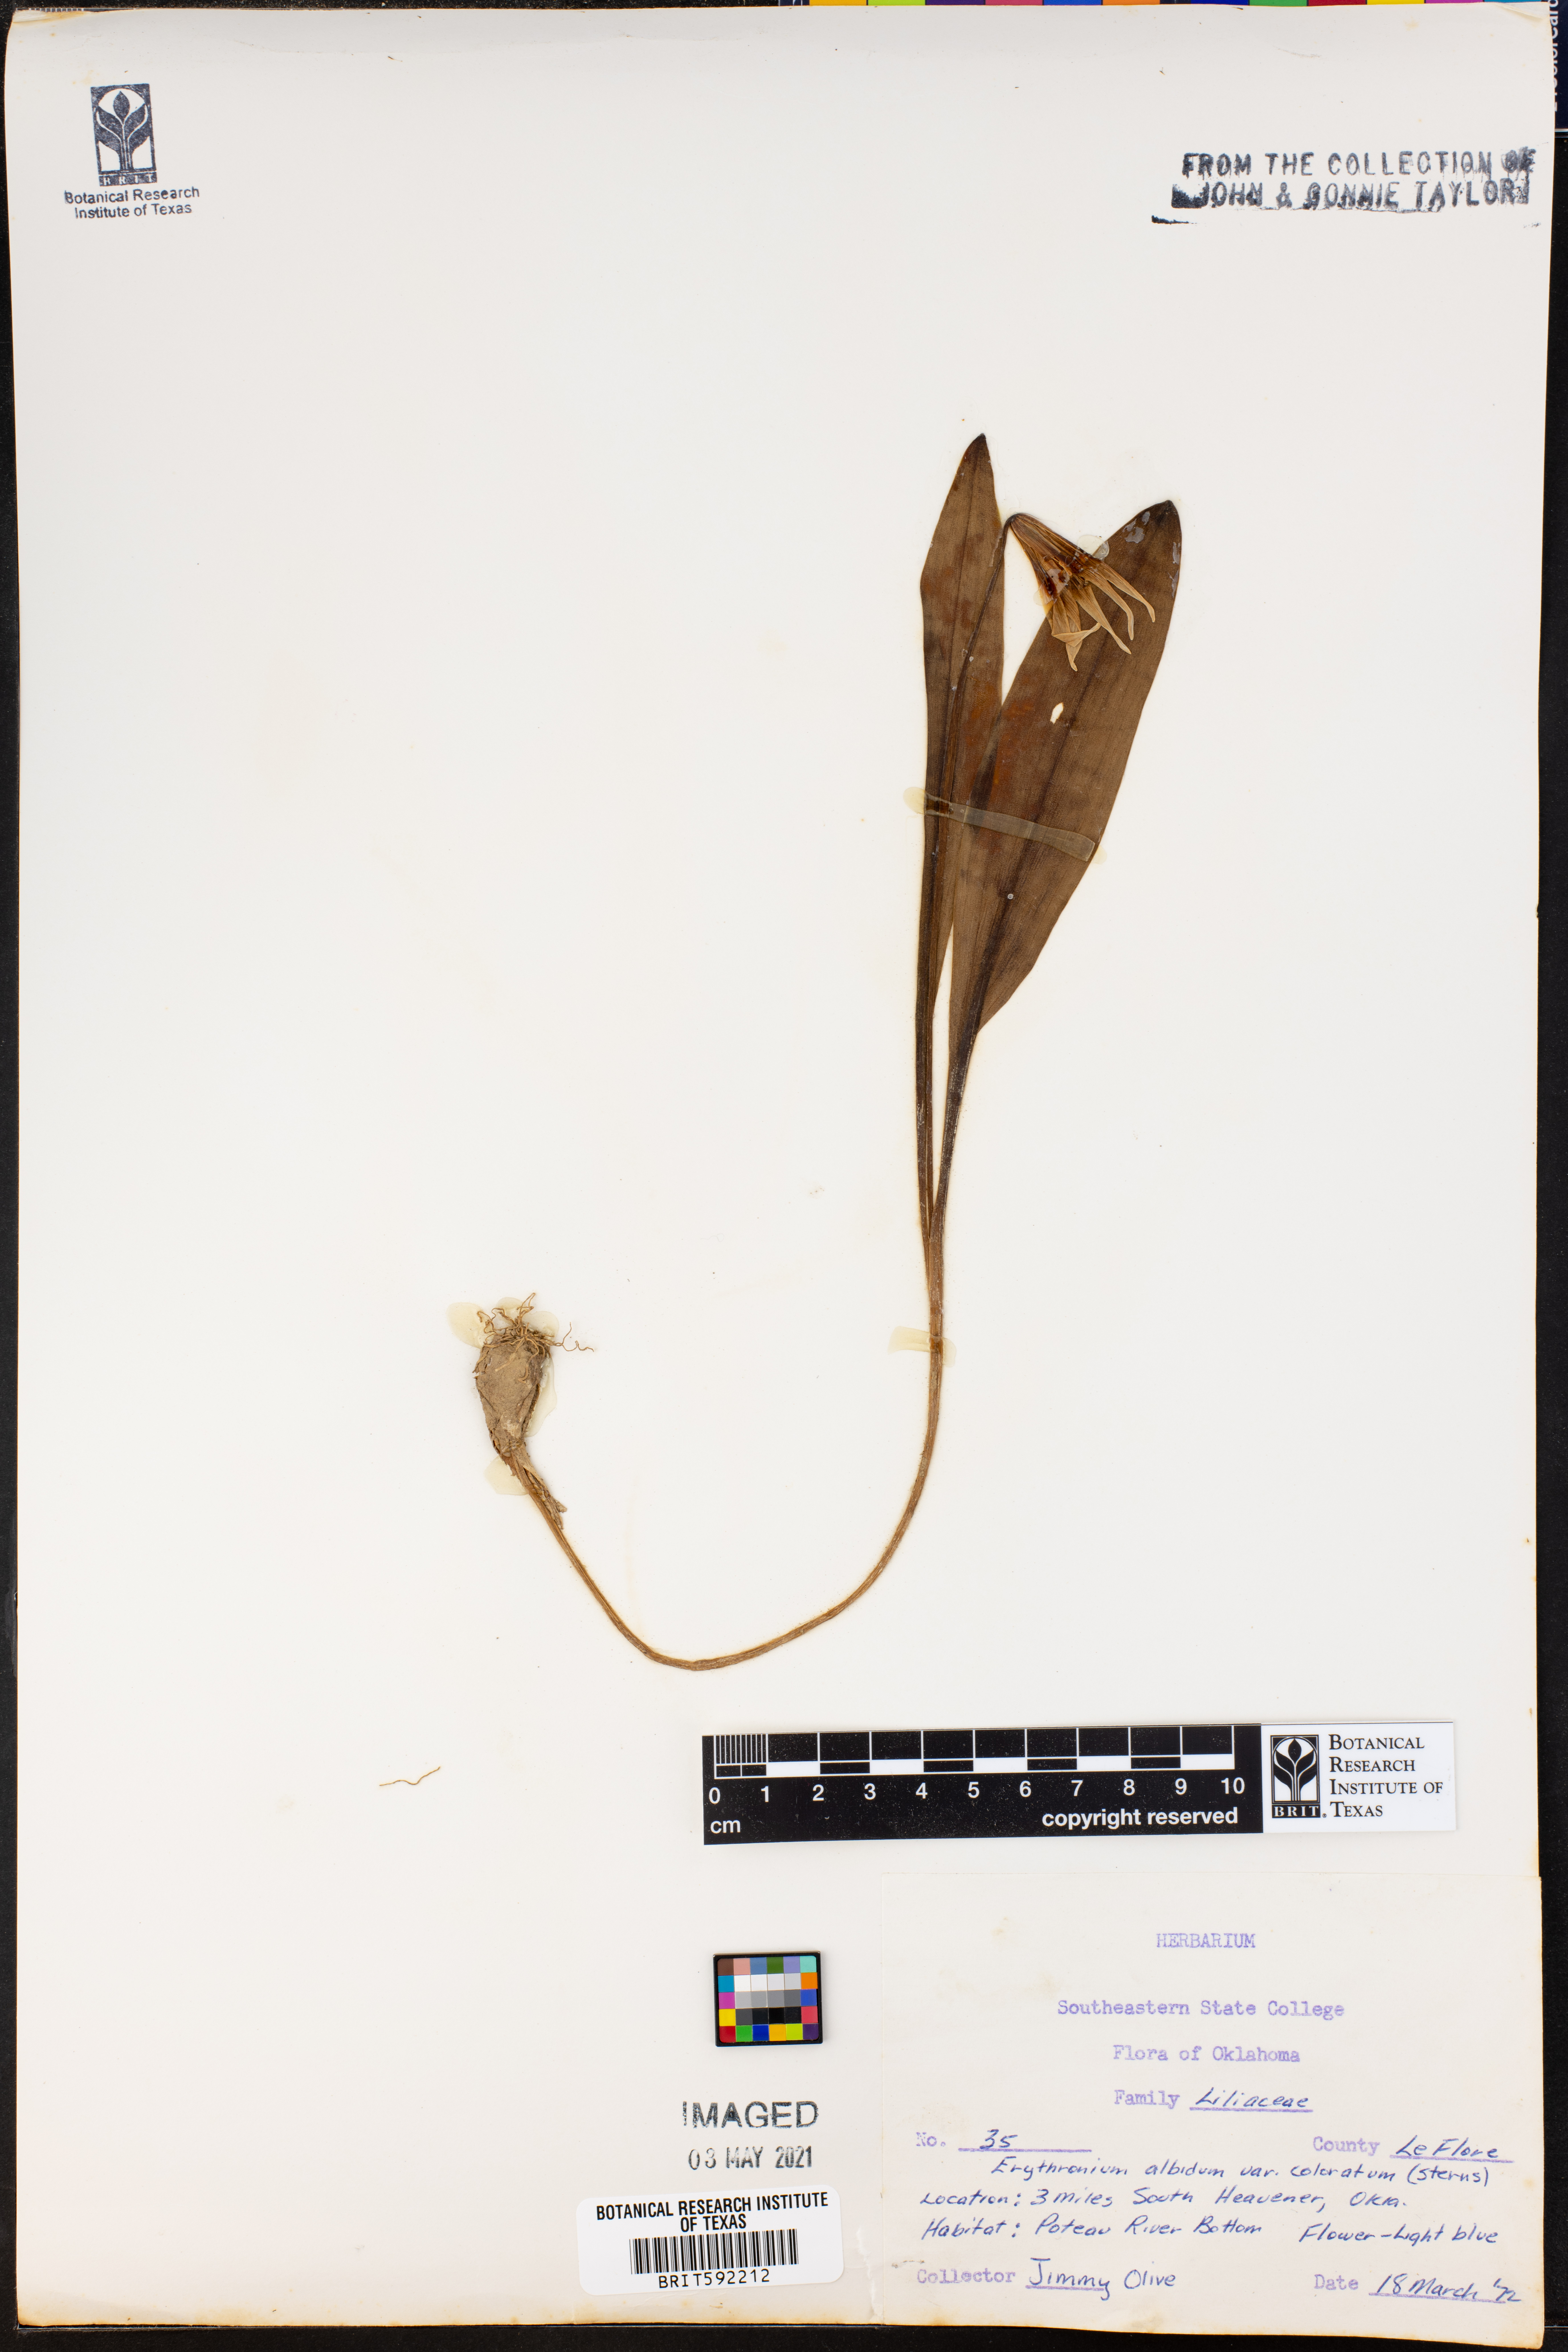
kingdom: Plantae
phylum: Tracheophyta
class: Liliopsida
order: Liliales
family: Liliaceae
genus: Erythronium
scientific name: Erythronium albidum
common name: White trout-lily
